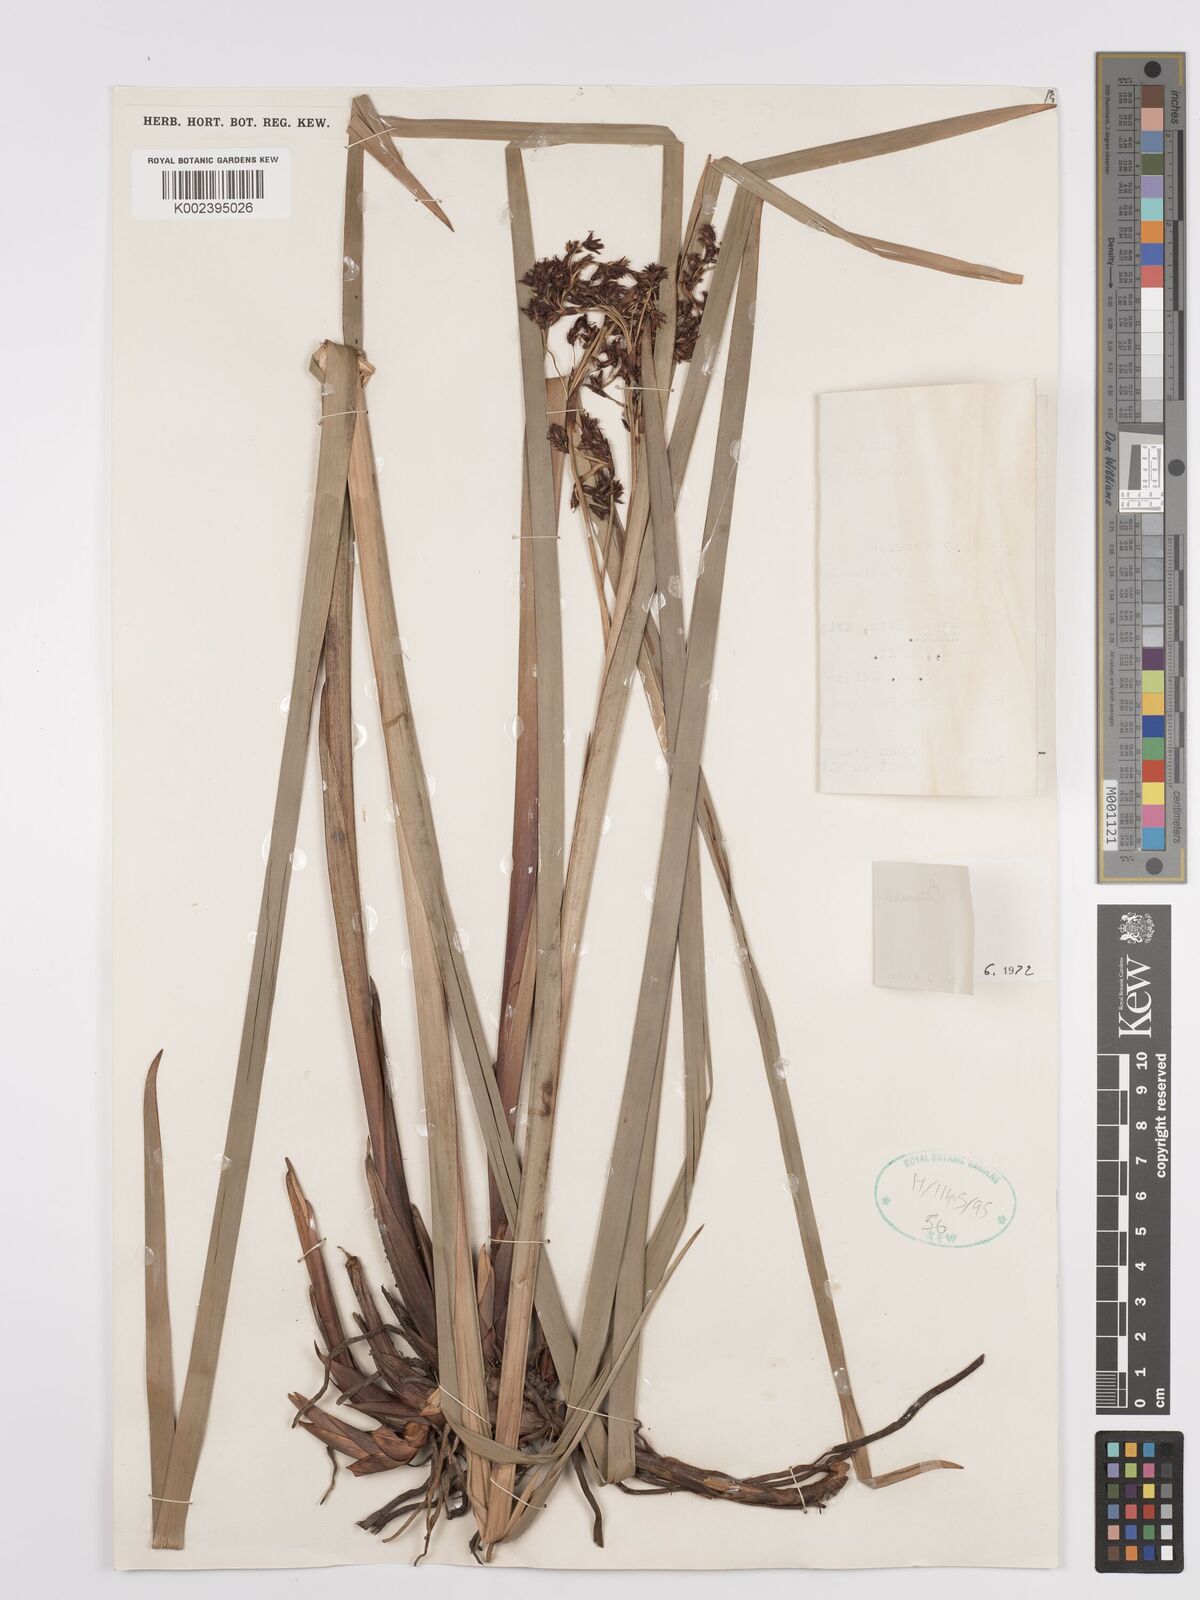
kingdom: Plantae
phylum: Tracheophyta
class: Liliopsida
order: Poales
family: Cyperaceae
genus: Machaerina
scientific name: Machaerina
